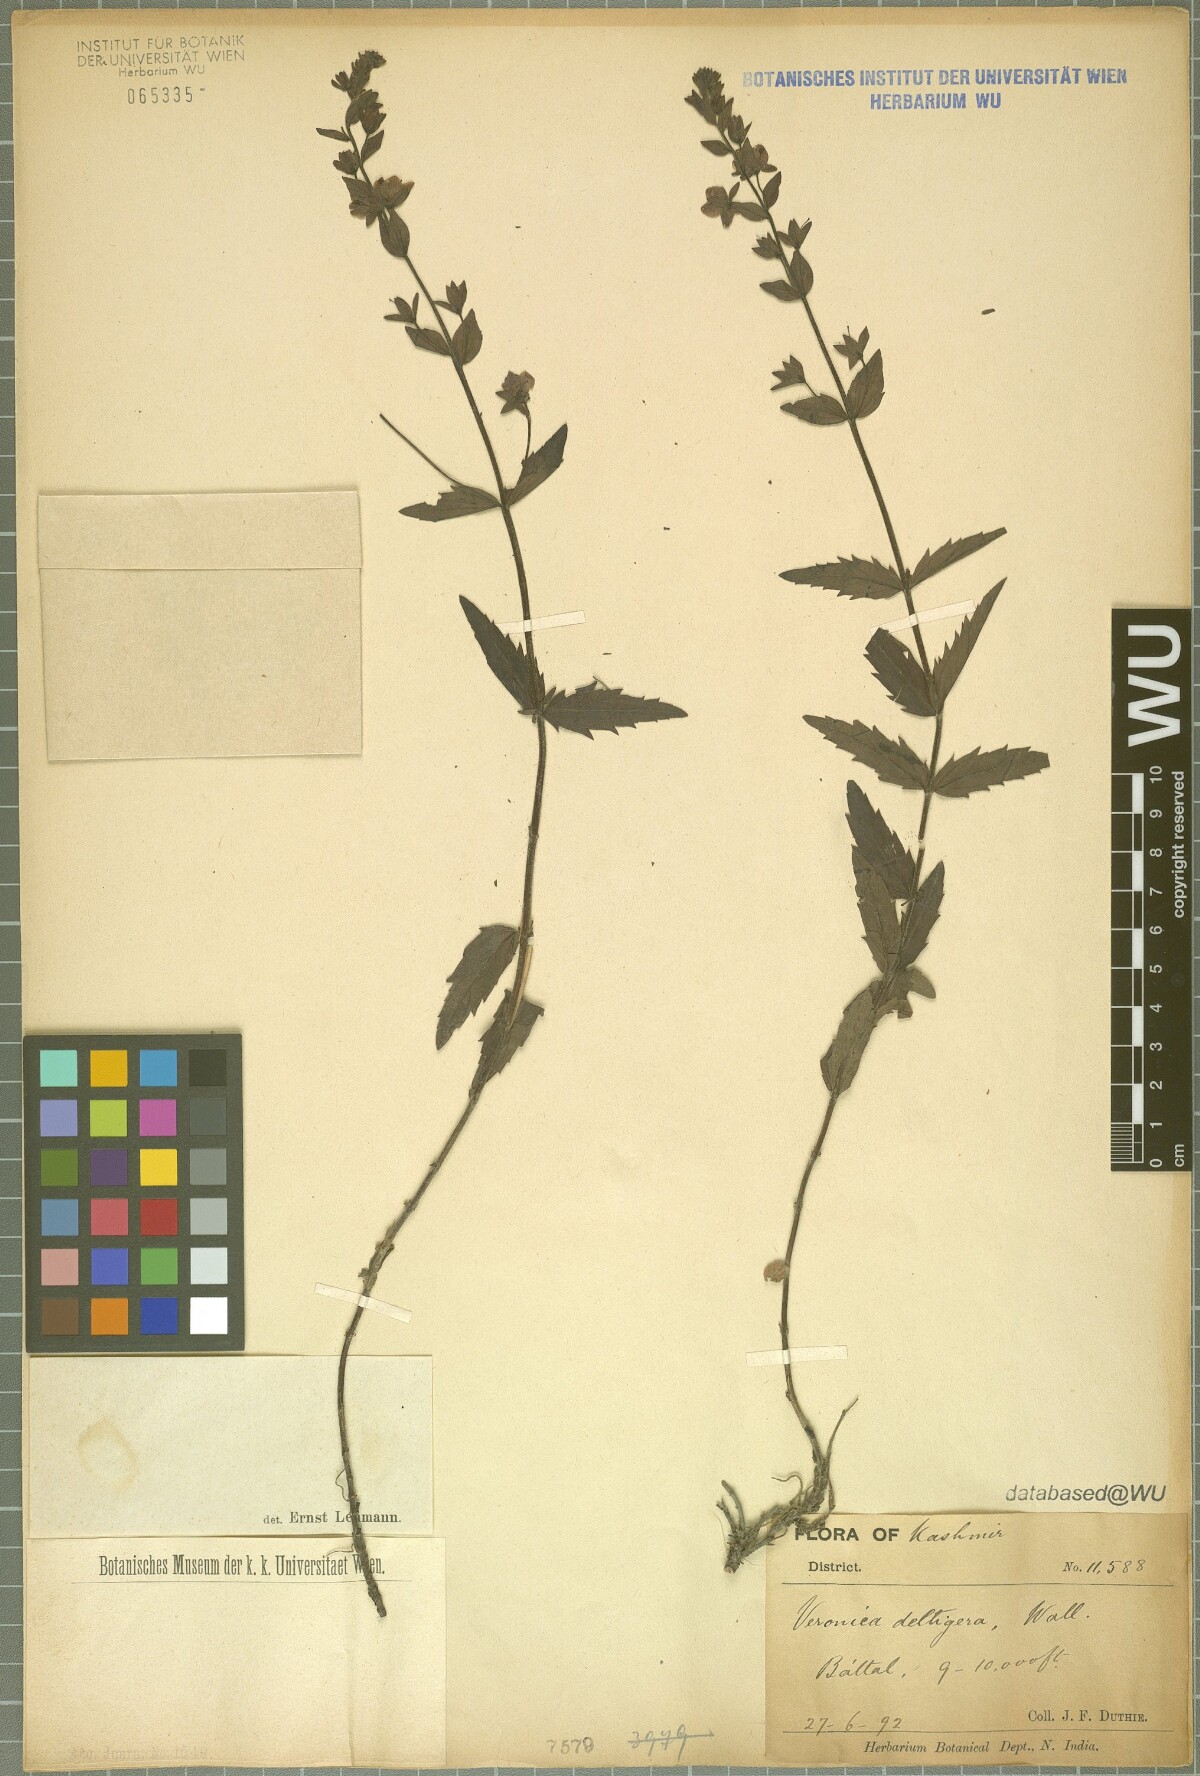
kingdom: Plantae
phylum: Tracheophyta
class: Magnoliopsida
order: Lamiales
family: Plantaginaceae
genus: Veronica
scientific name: Veronica deltigera
